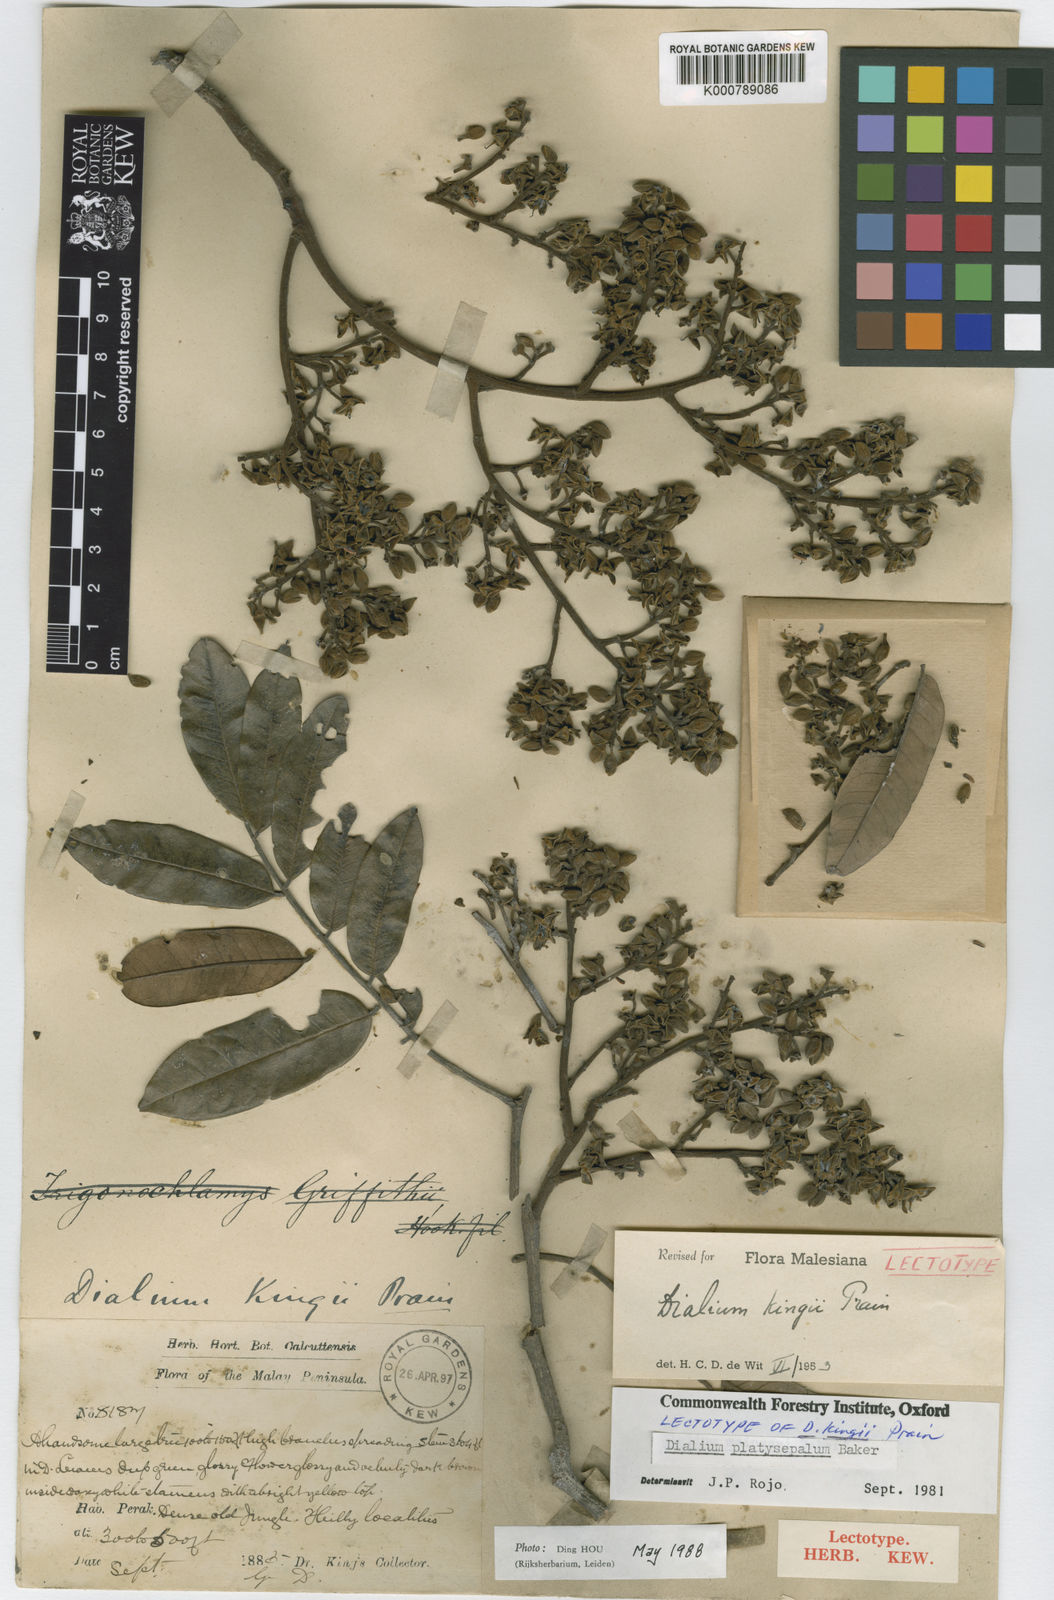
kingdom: Plantae
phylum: Tracheophyta
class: Magnoliopsida
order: Fabales
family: Fabaceae
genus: Dialium
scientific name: Dialium platysepalum
